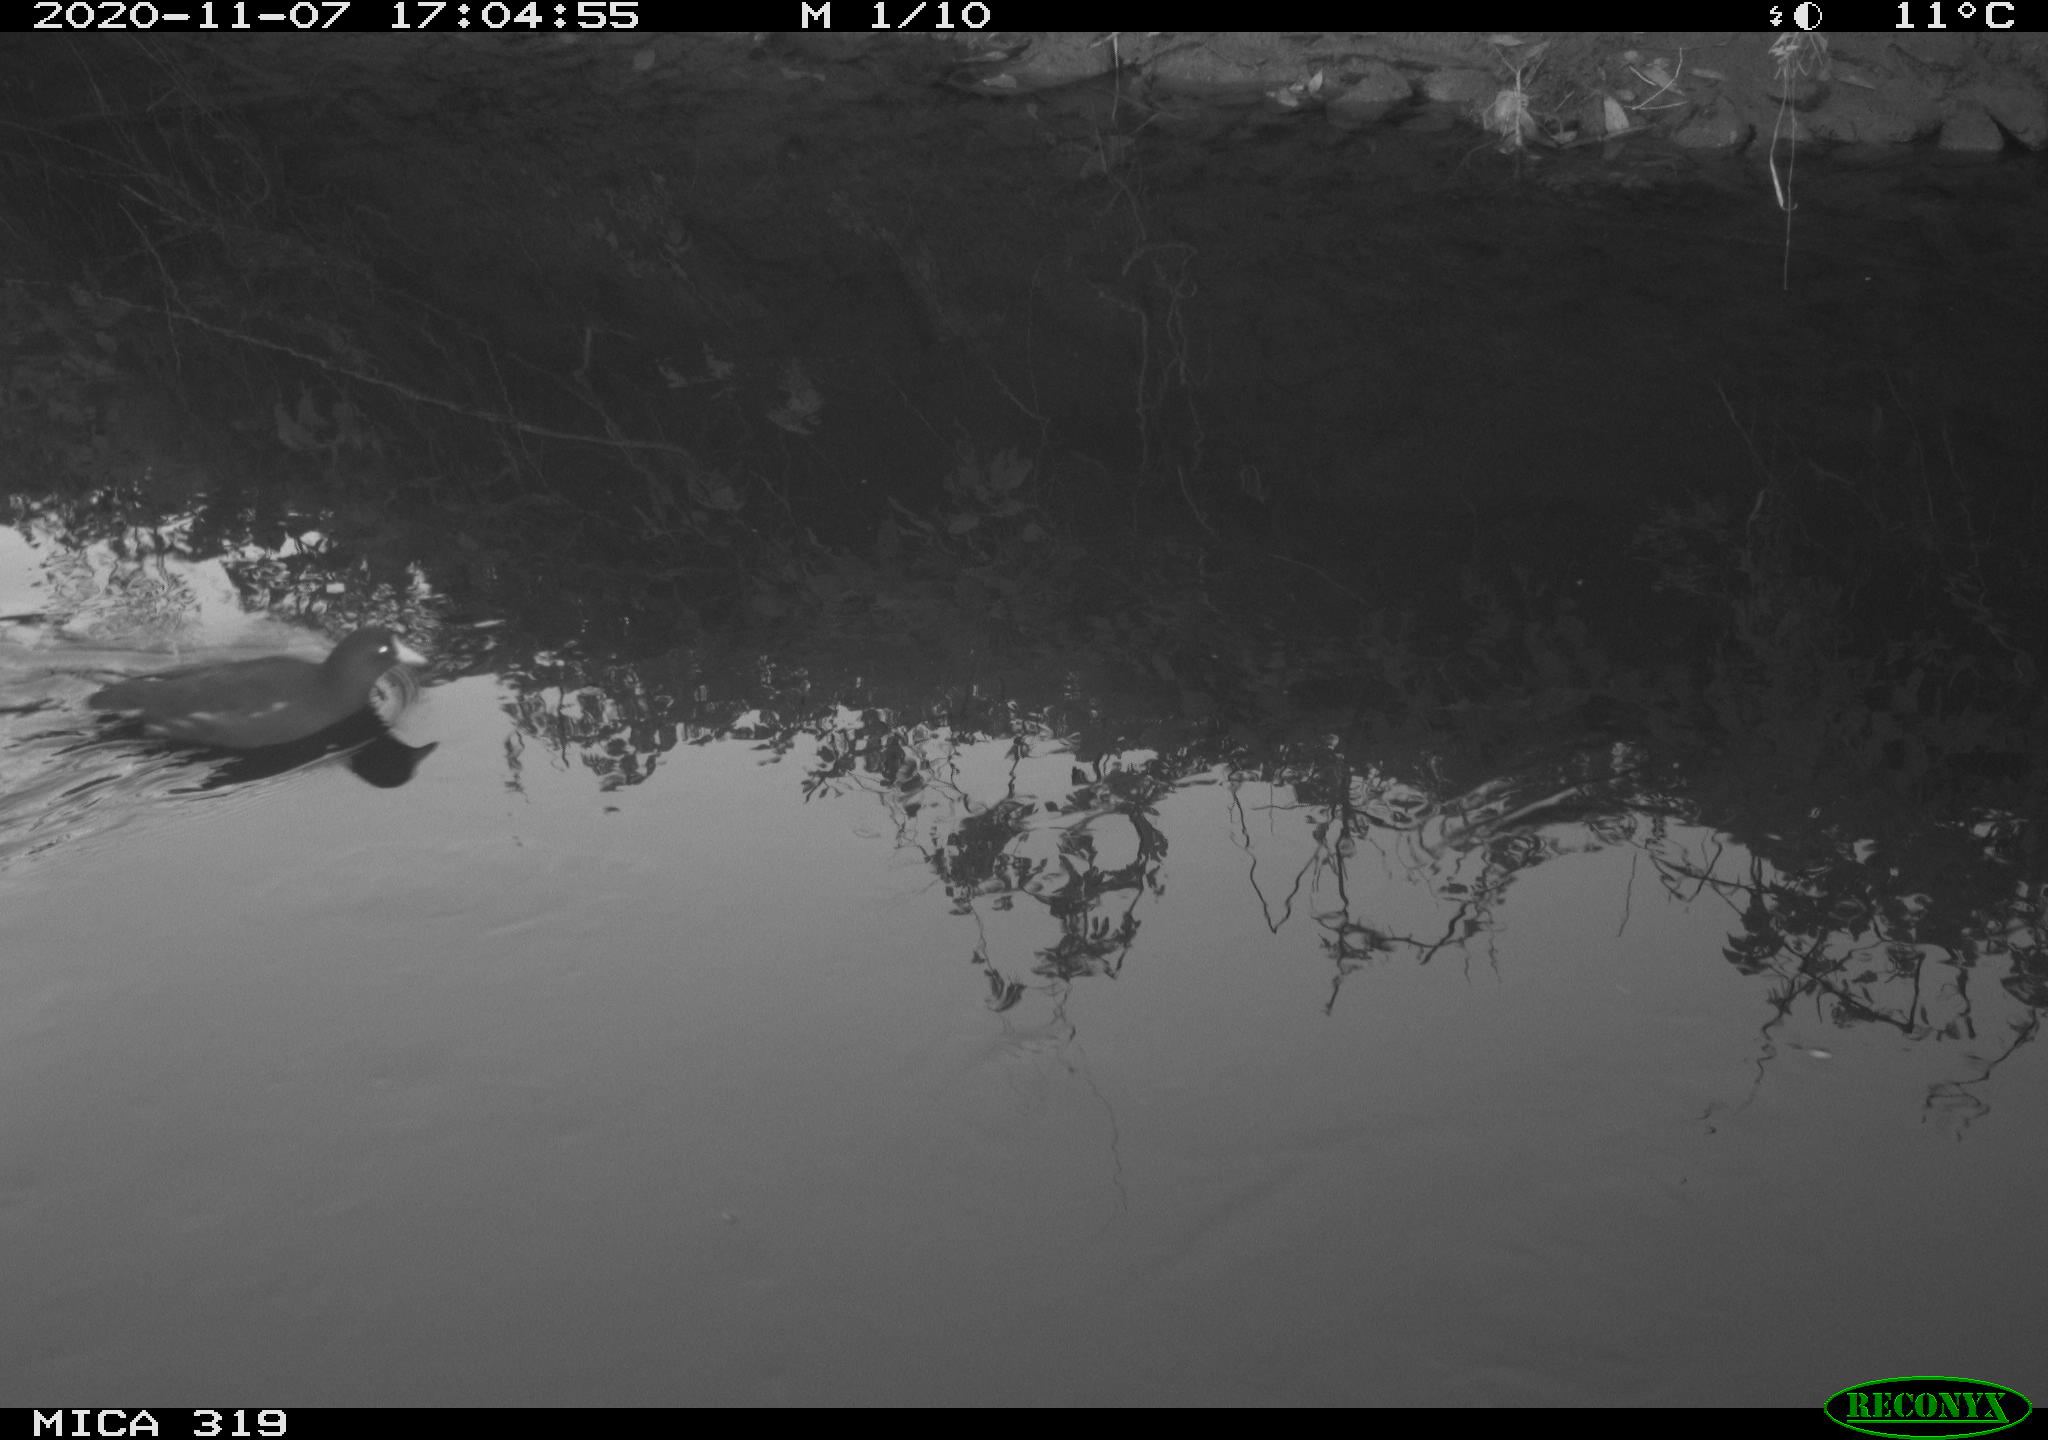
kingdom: Animalia
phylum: Chordata
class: Aves
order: Gruiformes
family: Rallidae
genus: Gallinula
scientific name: Gallinula chloropus
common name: Common moorhen
